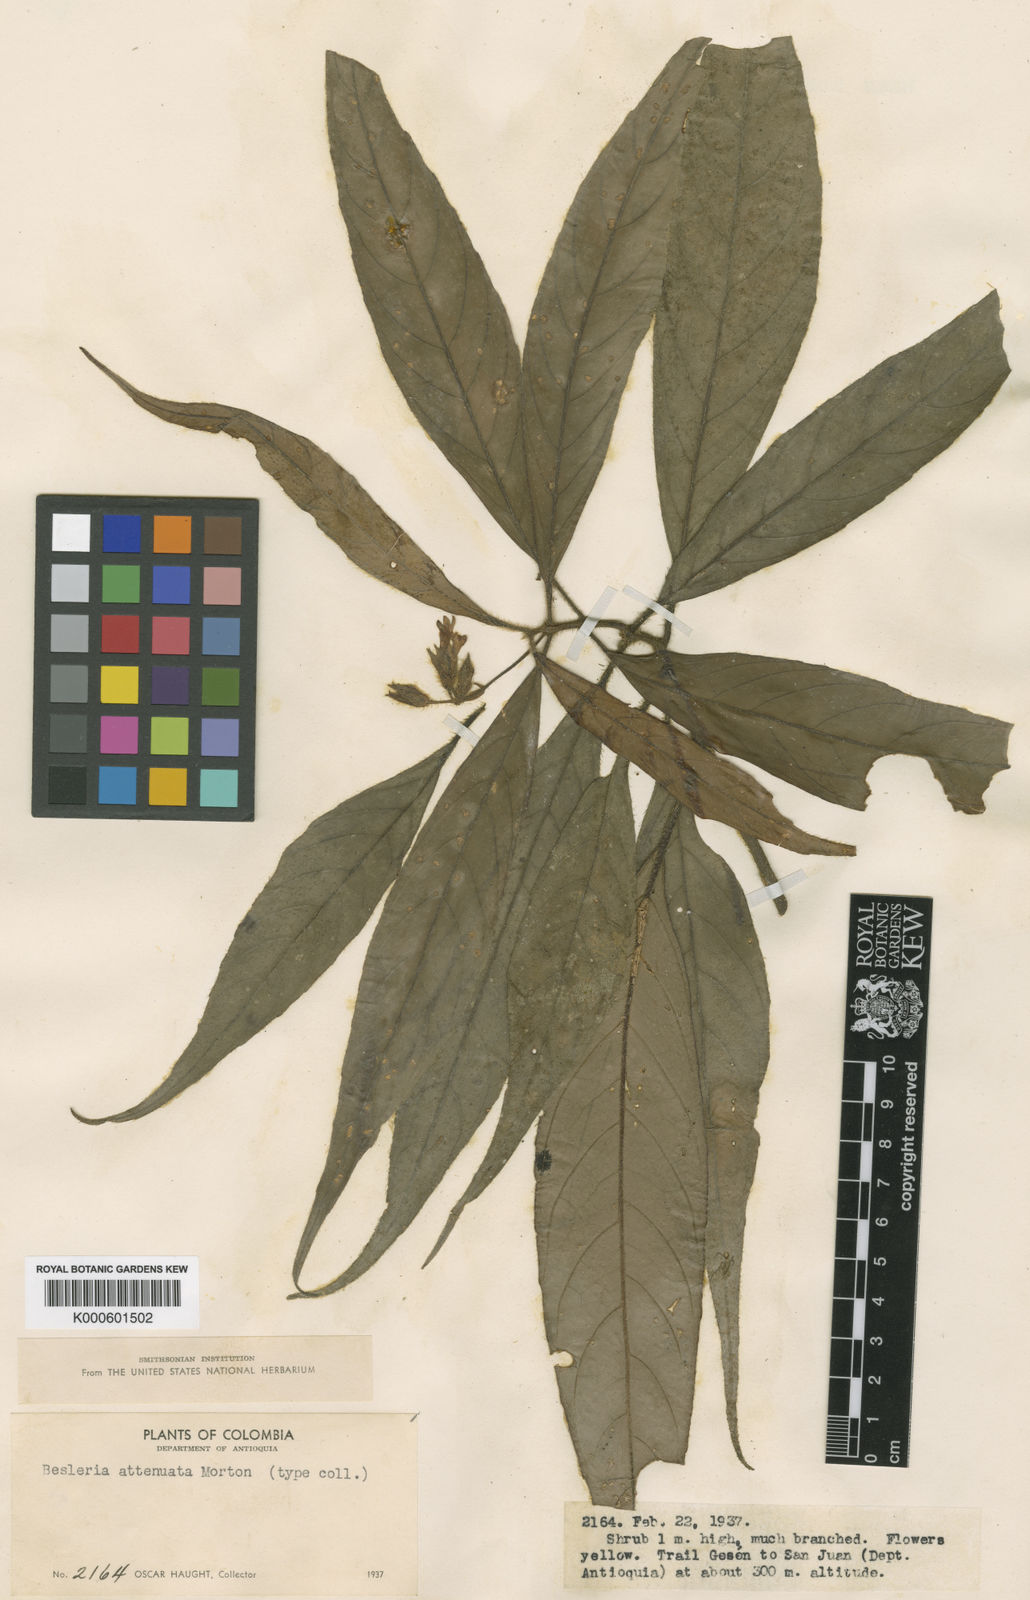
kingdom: Plantae
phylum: Tracheophyta
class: Magnoliopsida
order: Lamiales
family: Gesneriaceae
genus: Besleria
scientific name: Besleria attenuata
